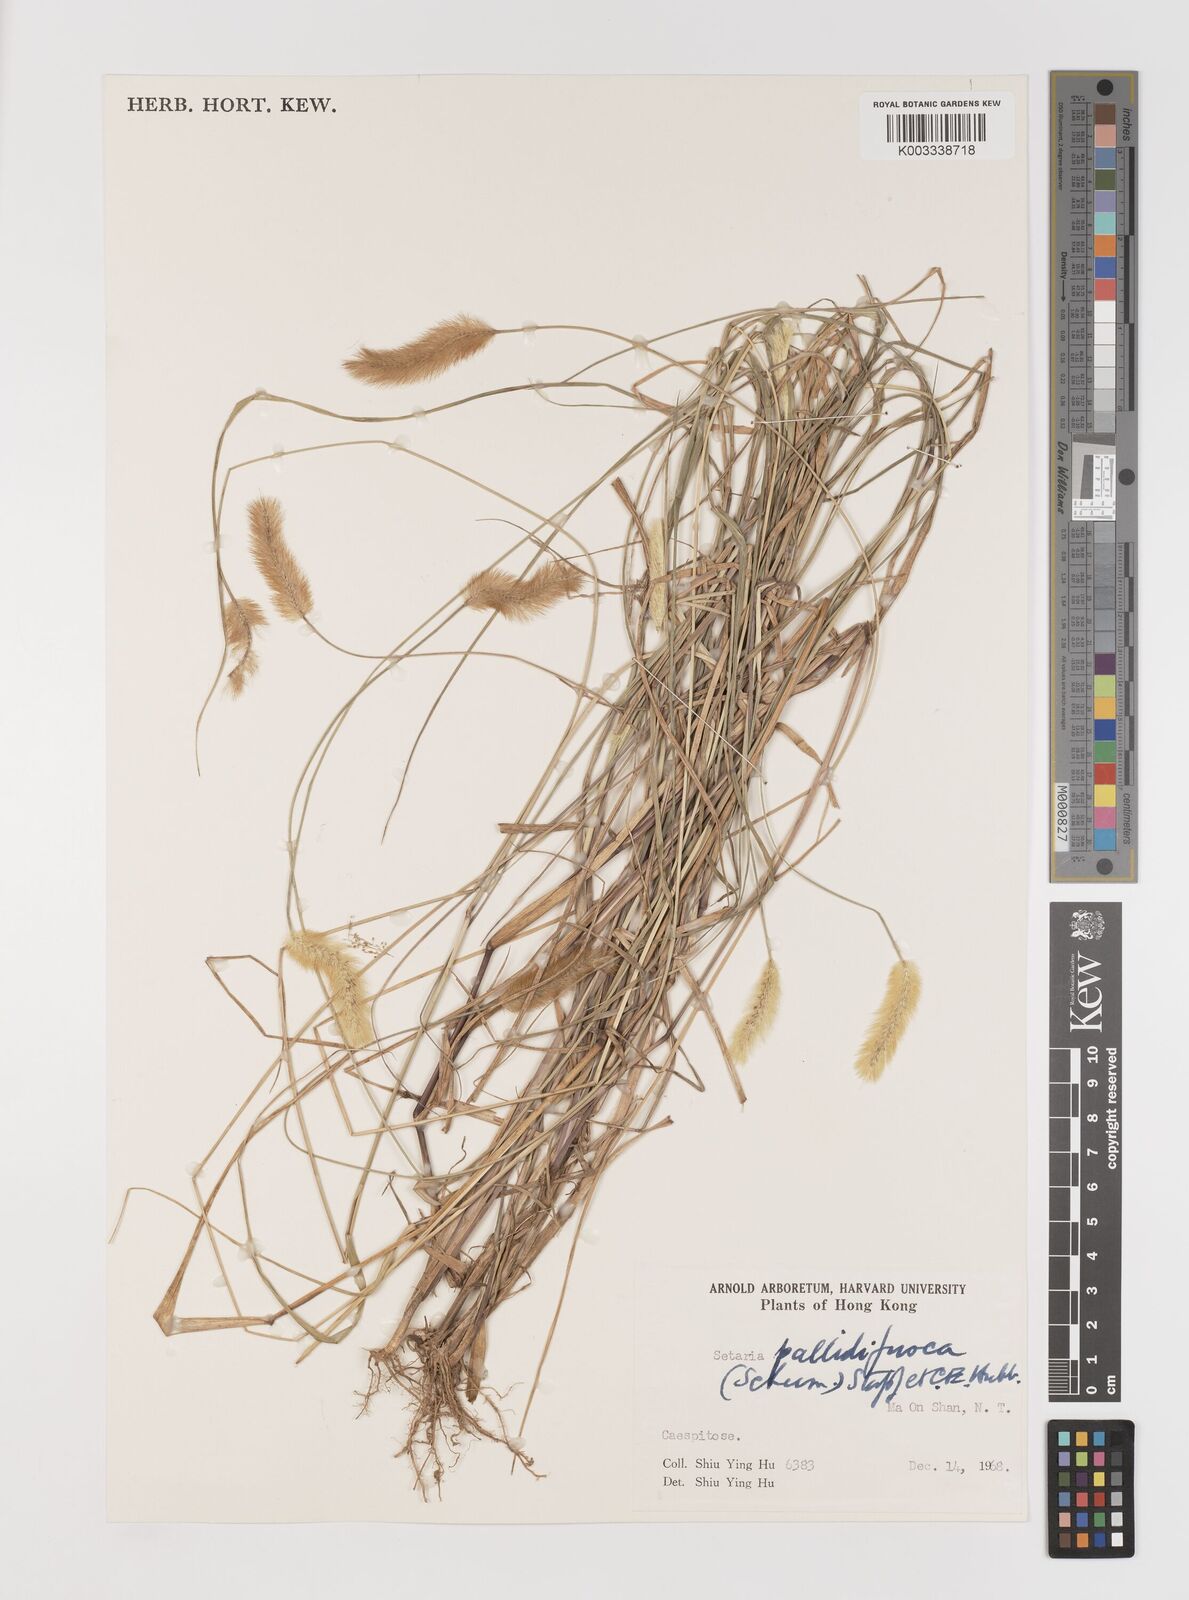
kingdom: Plantae
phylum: Tracheophyta
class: Liliopsida
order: Poales
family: Poaceae
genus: Setaria
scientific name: Setaria parviflora
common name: Knotroot bristle-grass
